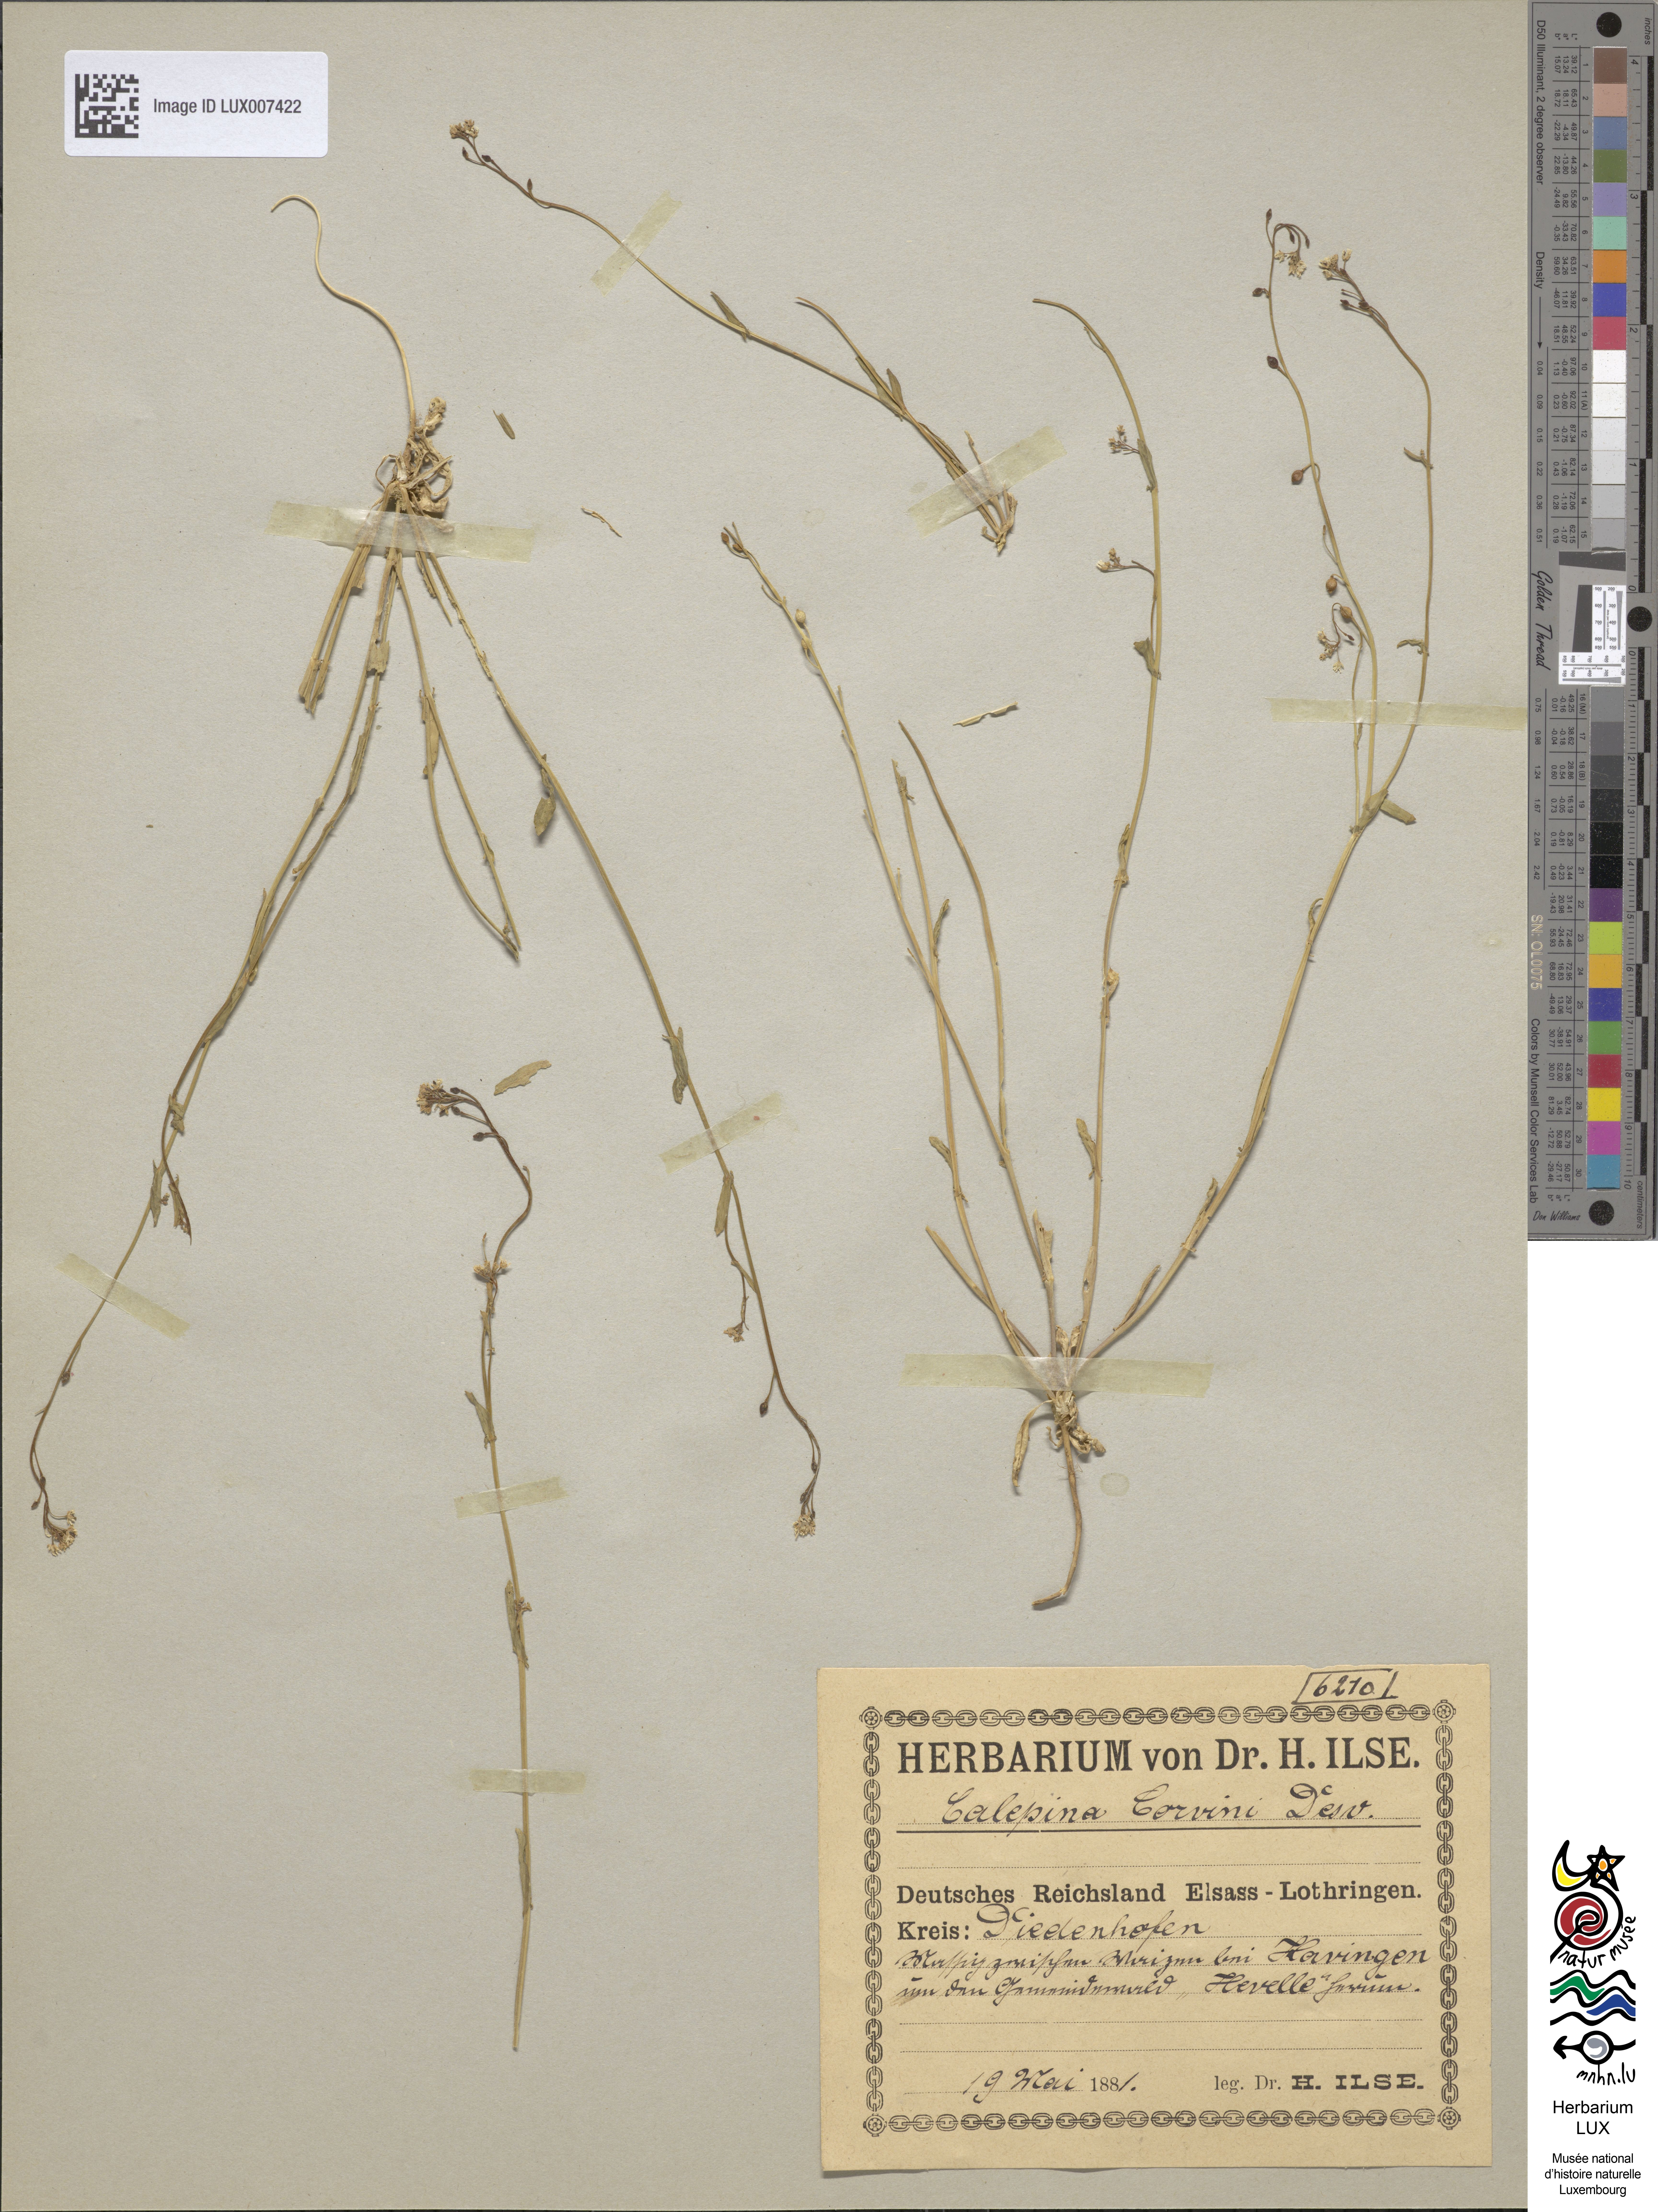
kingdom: Plantae
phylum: Tracheophyta
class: Magnoliopsida
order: Brassicales
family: Brassicaceae
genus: Calepina
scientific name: Calepina irregularis
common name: White ballmustard
